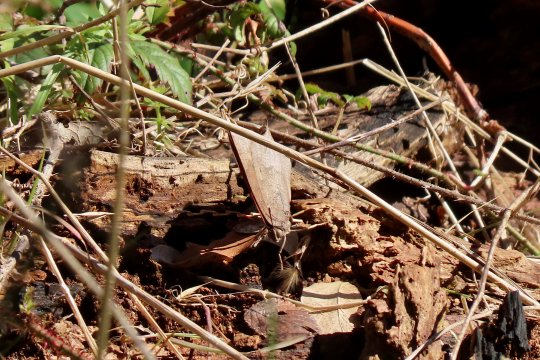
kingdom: Animalia
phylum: Arthropoda
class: Insecta
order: Lepidoptera
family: Nymphalidae
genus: Anaea
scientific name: Anaea andria
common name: Goatweed Leafwing
